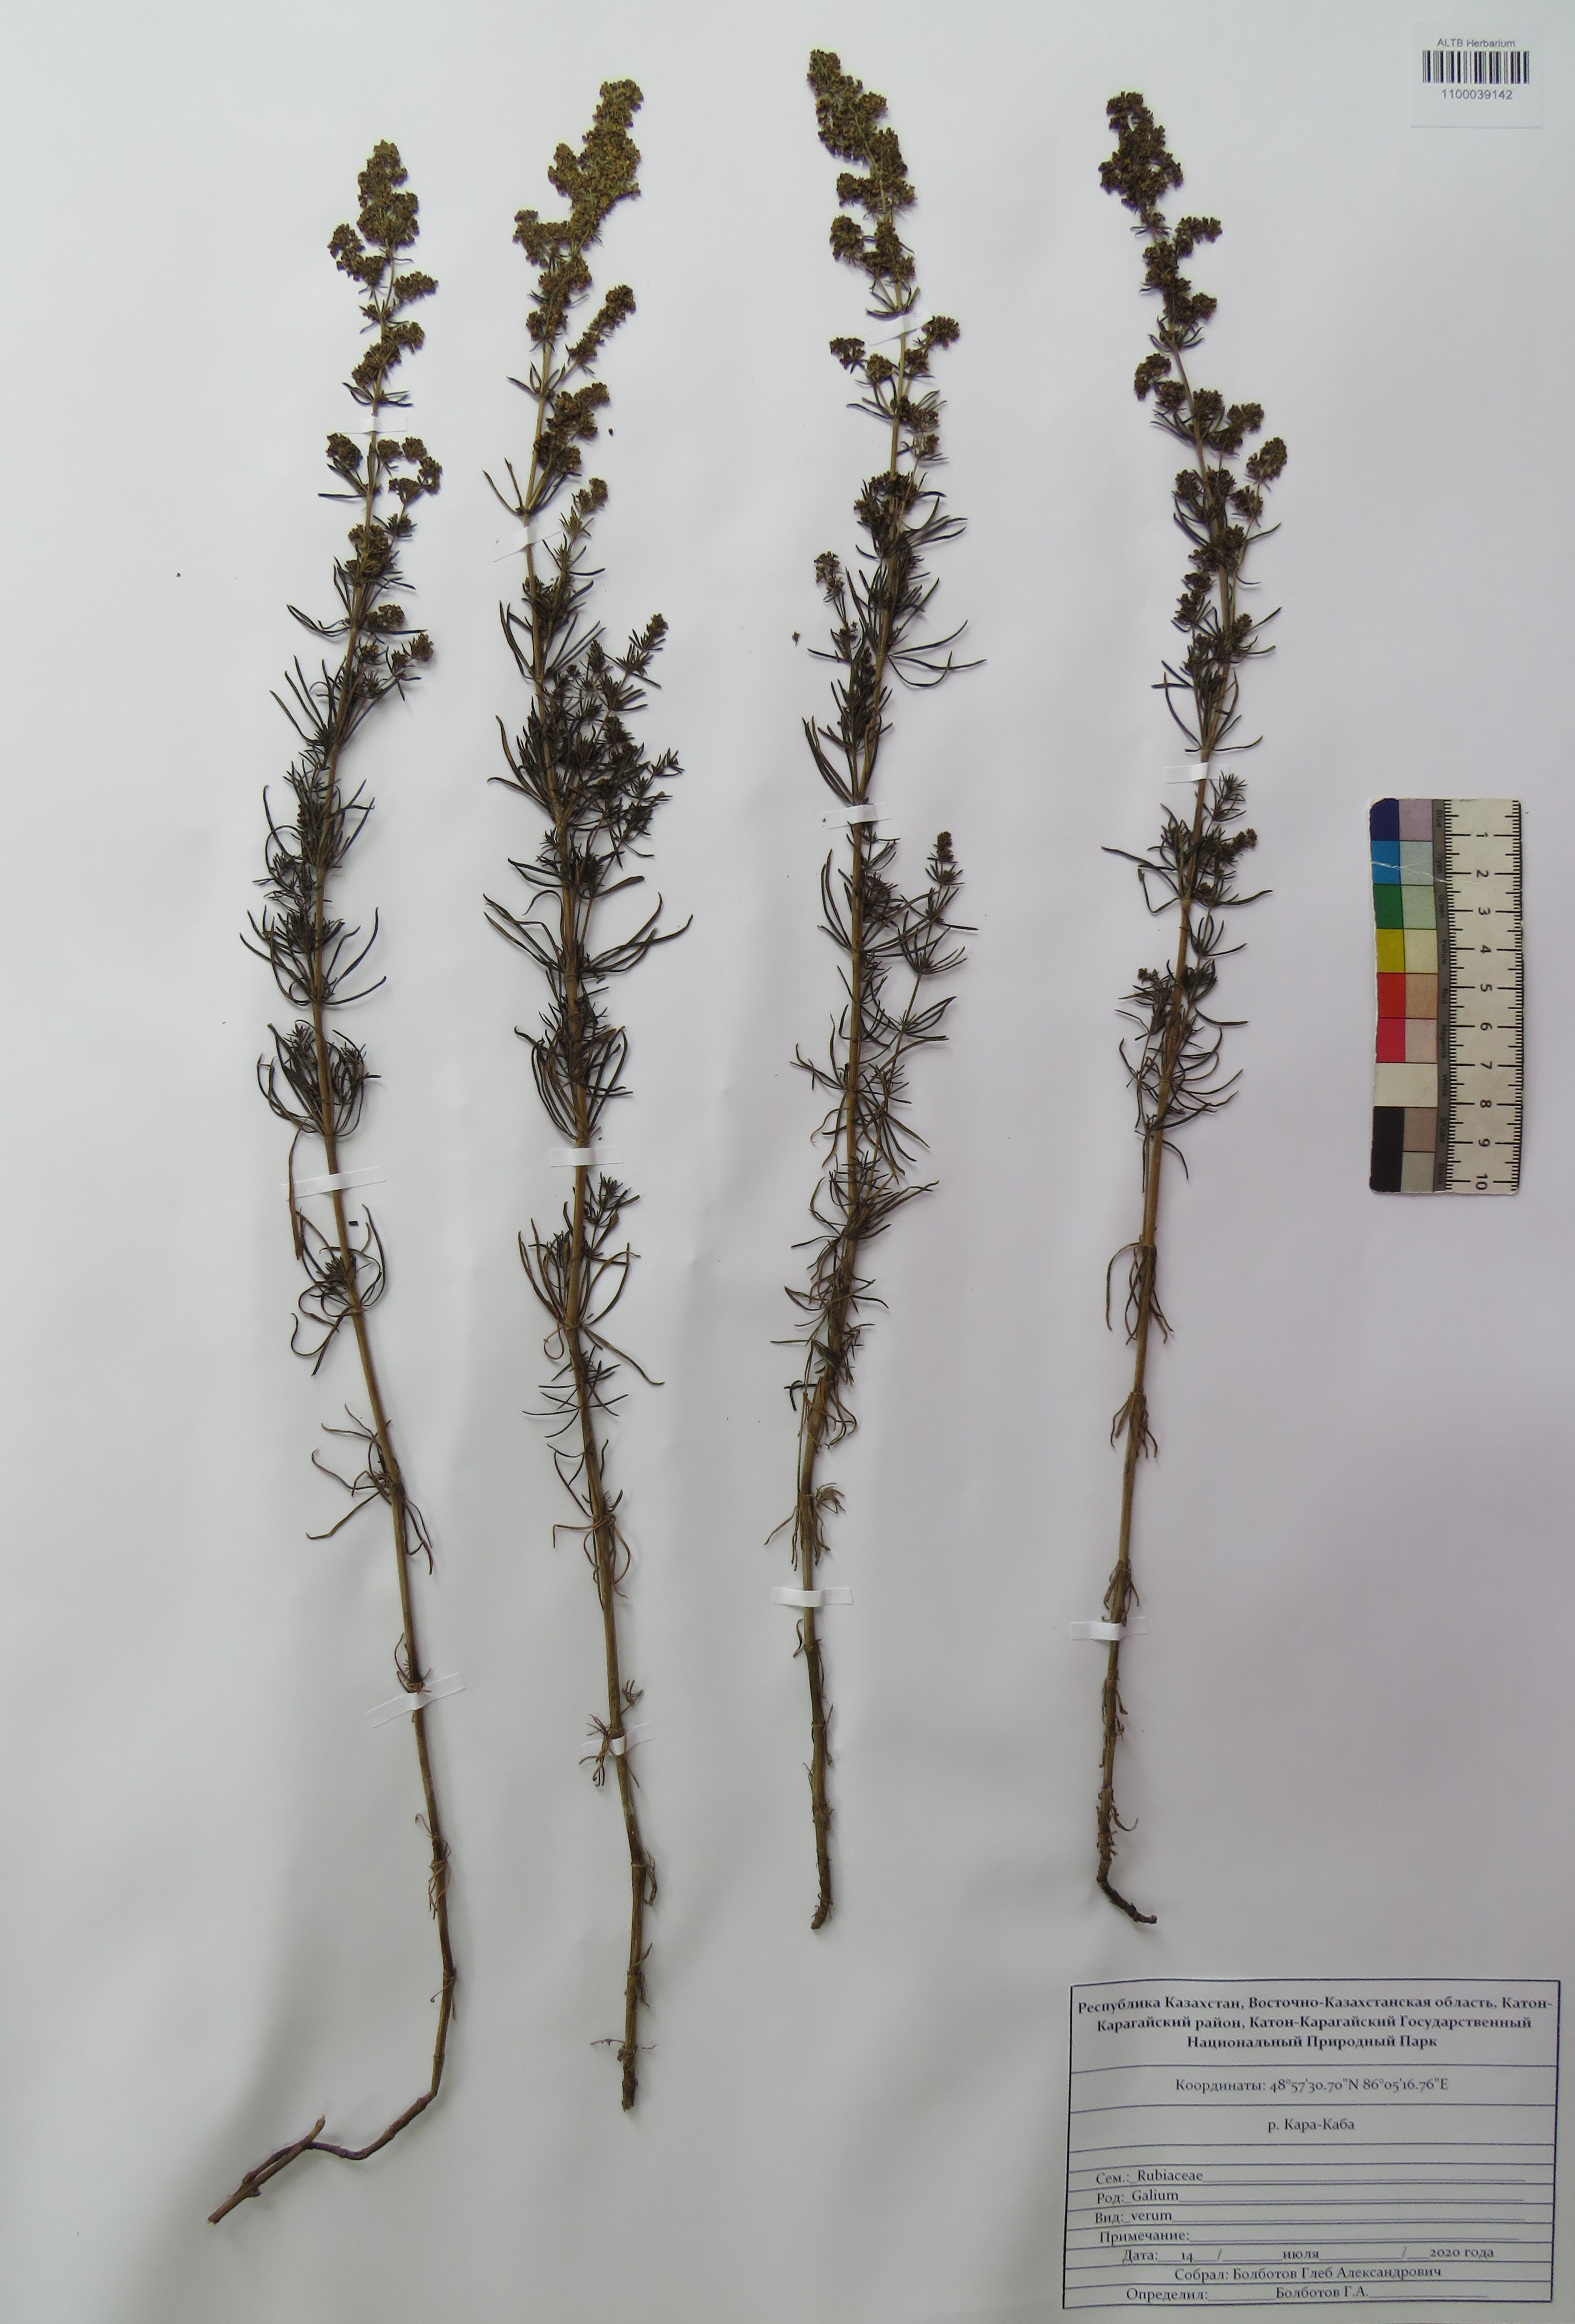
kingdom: Plantae
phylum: Tracheophyta
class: Magnoliopsida
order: Gentianales
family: Rubiaceae
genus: Galium
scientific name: Galium verum
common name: Lady's bedstraw
